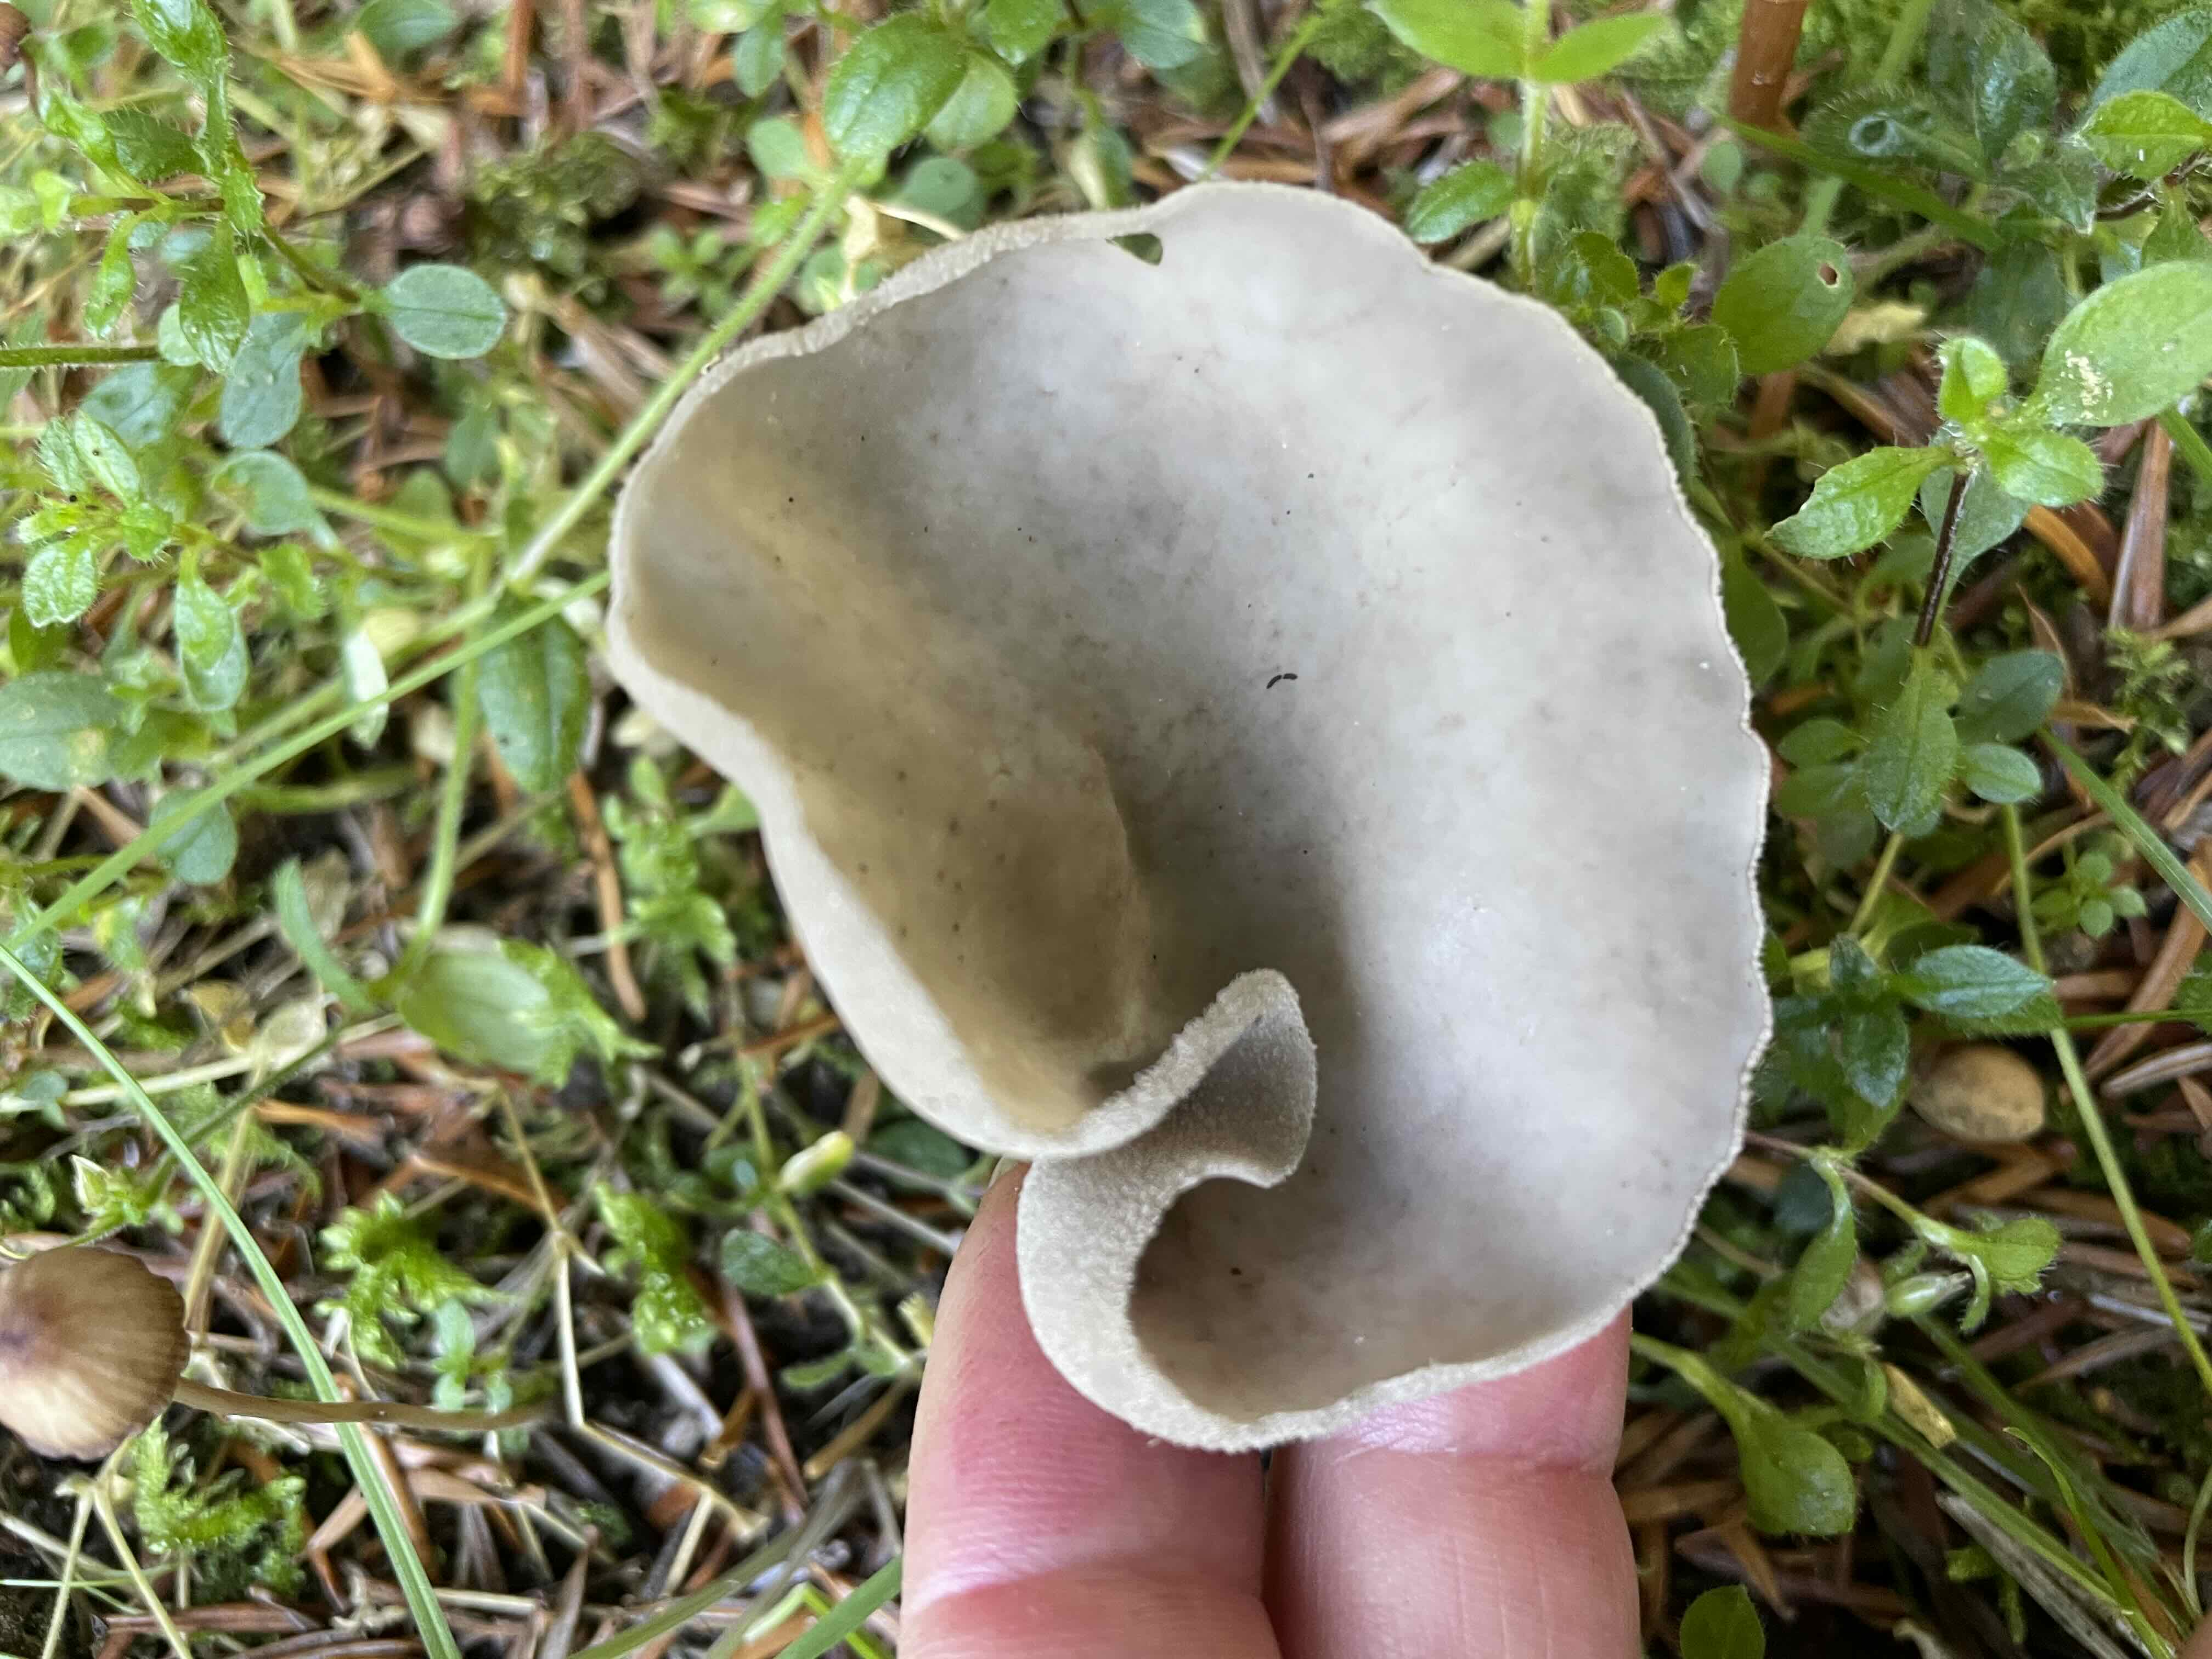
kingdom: Fungi
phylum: Ascomycota
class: Pezizomycetes
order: Pezizales
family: Helvellaceae
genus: Helvella
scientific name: Helvella
